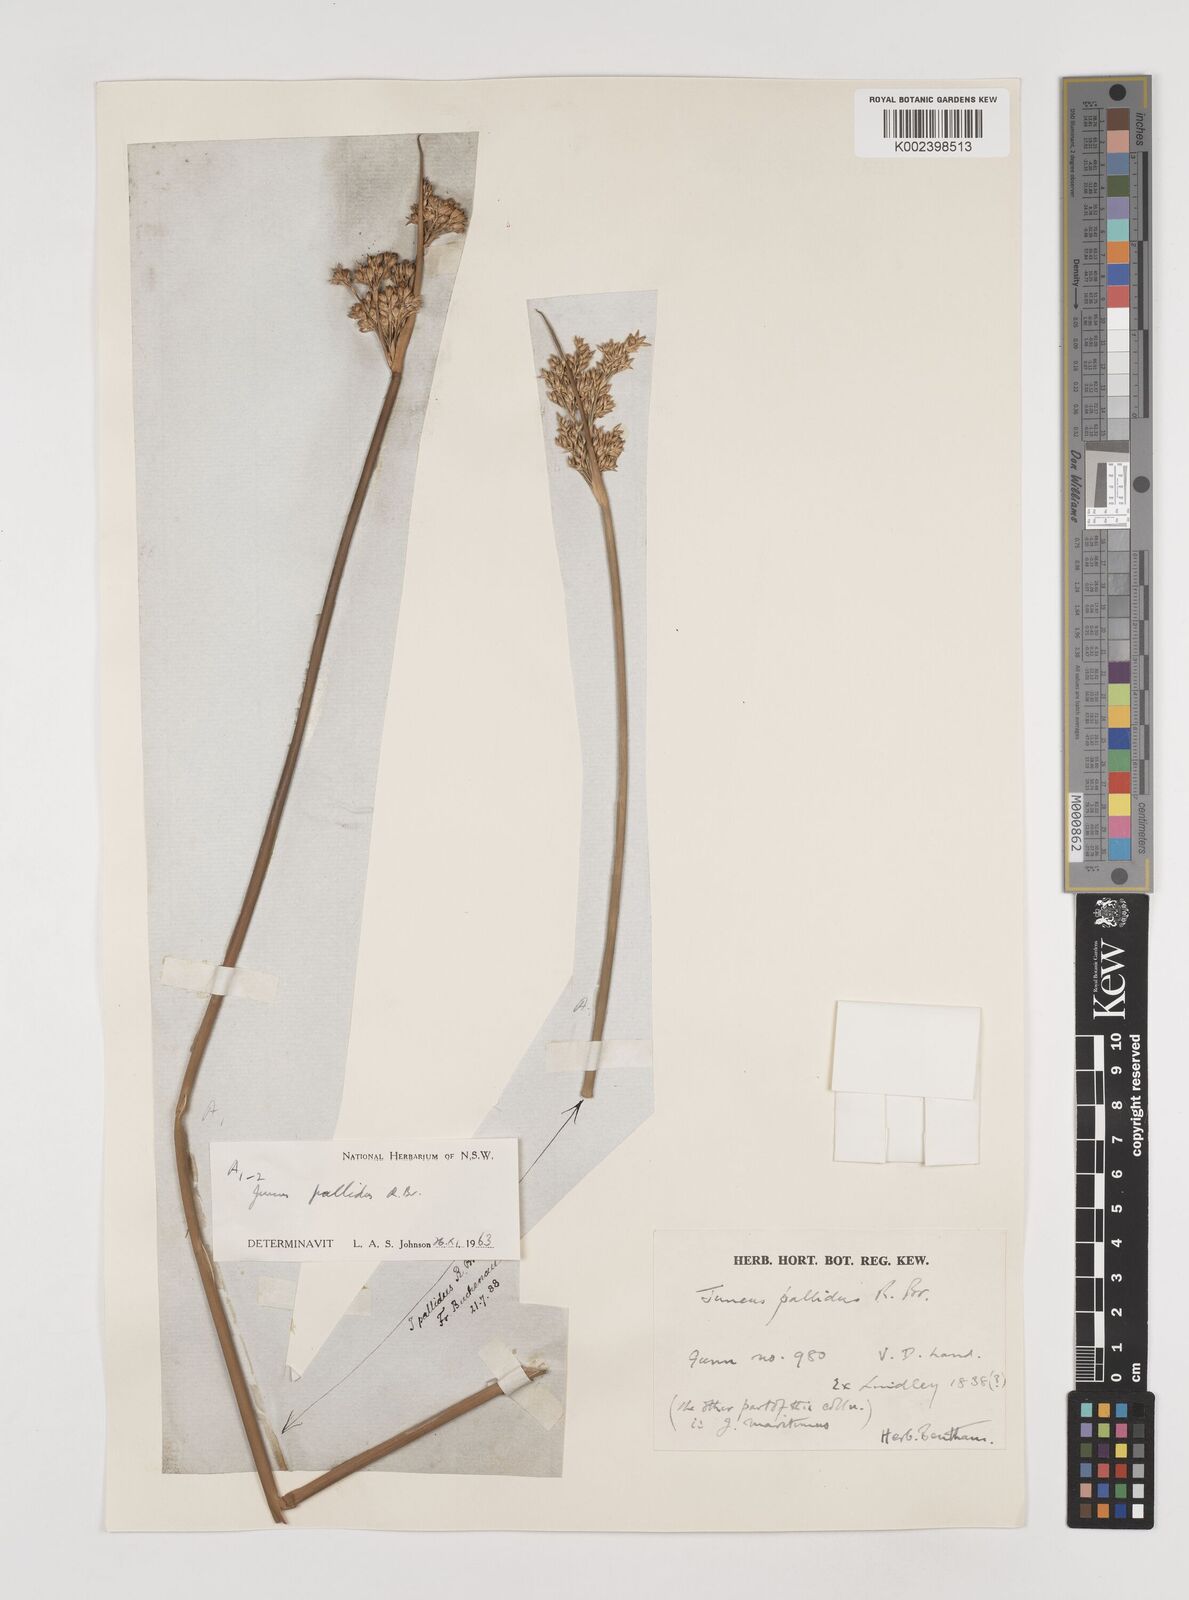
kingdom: Plantae
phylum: Tracheophyta
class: Liliopsida
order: Poales
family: Juncaceae
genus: Juncus
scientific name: Juncus pallidus
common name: Great soft-rush
